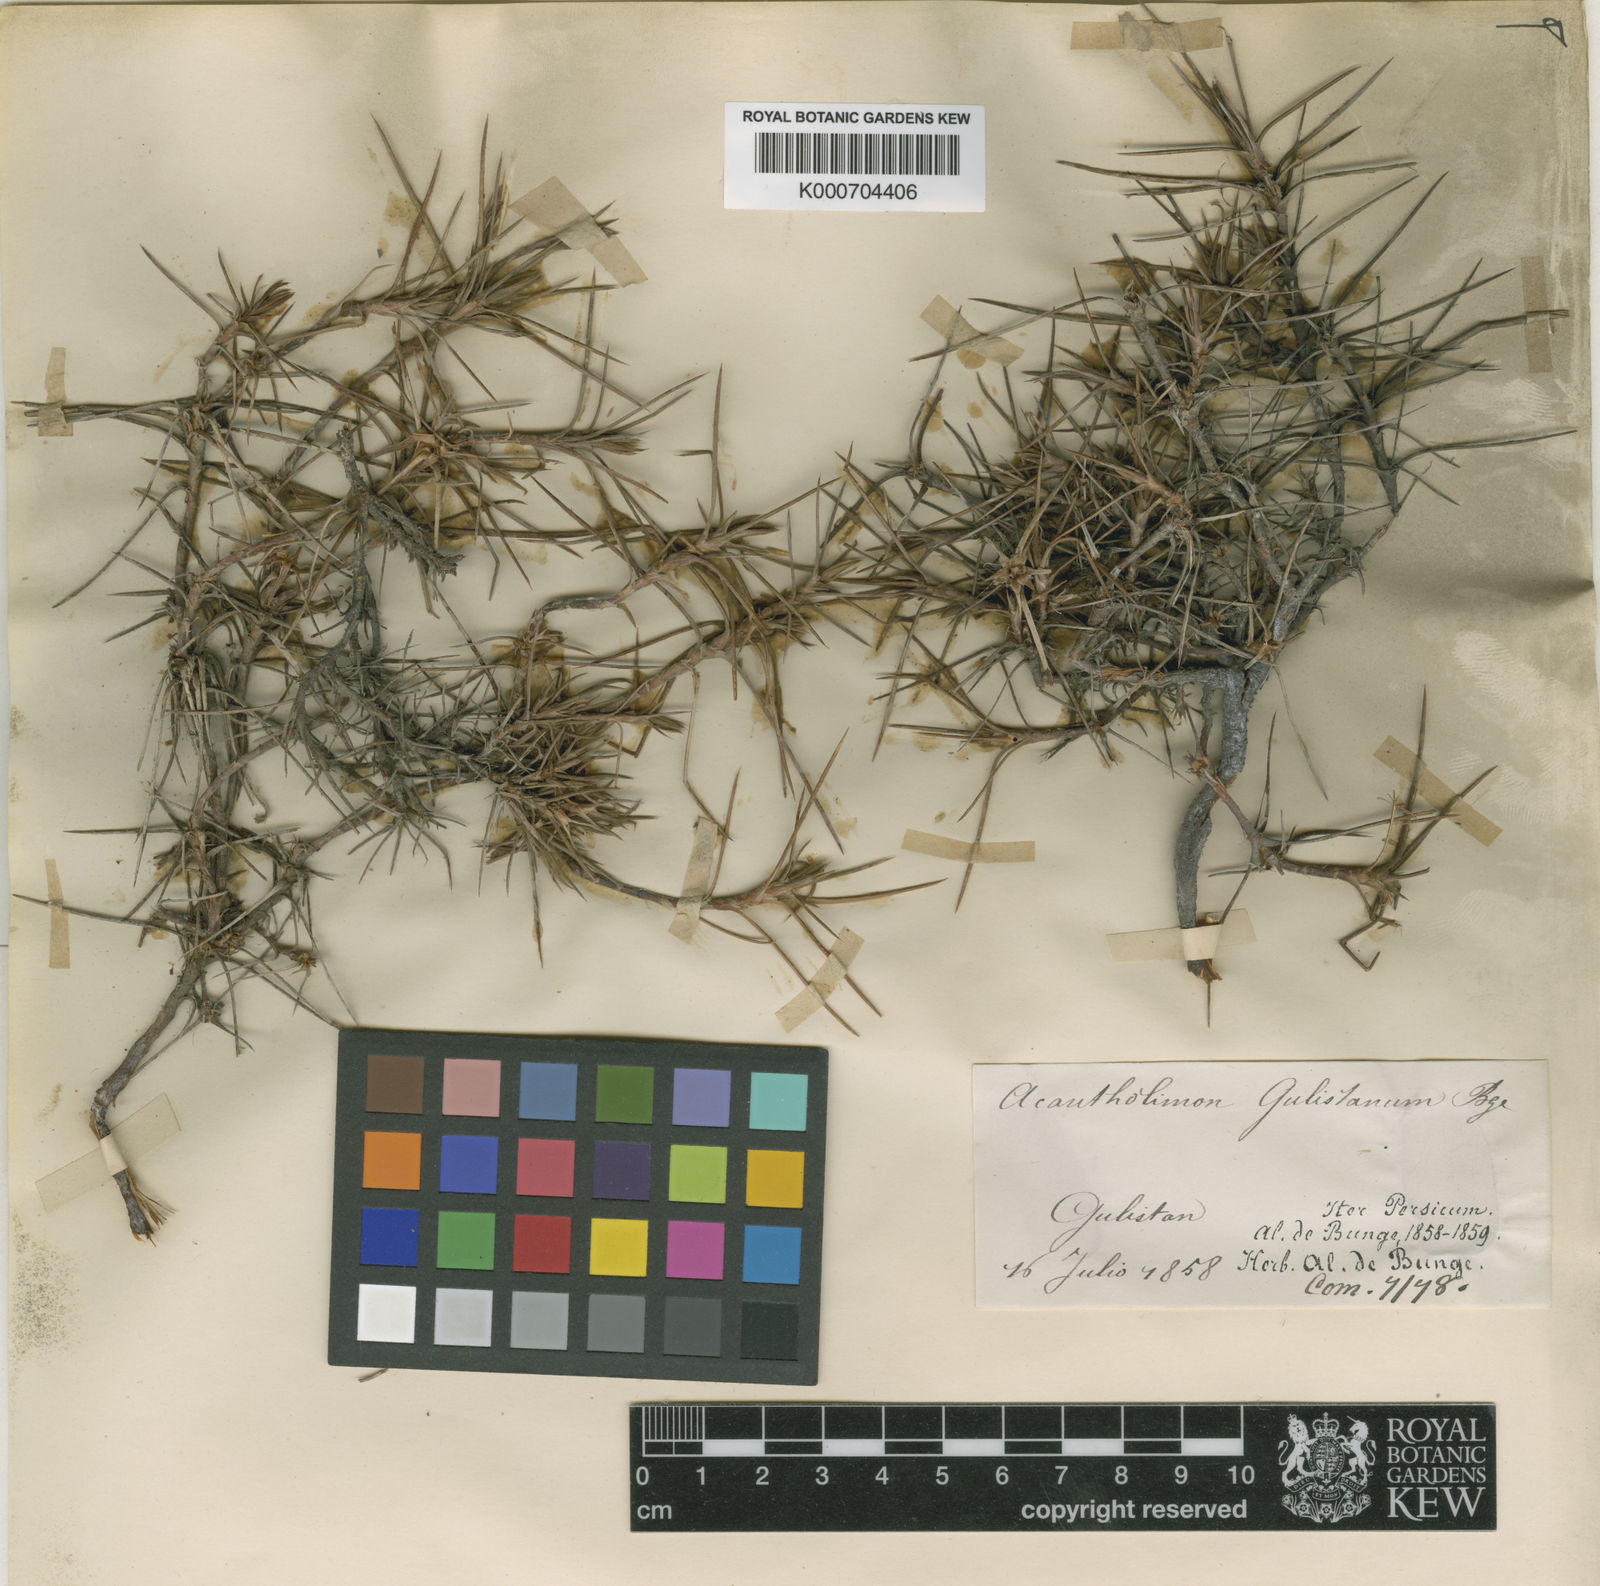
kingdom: Plantae
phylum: Tracheophyta
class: Magnoliopsida
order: Caryophyllales
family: Plumbaginaceae
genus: Acantholimon
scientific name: Acantholimon gulistanum
